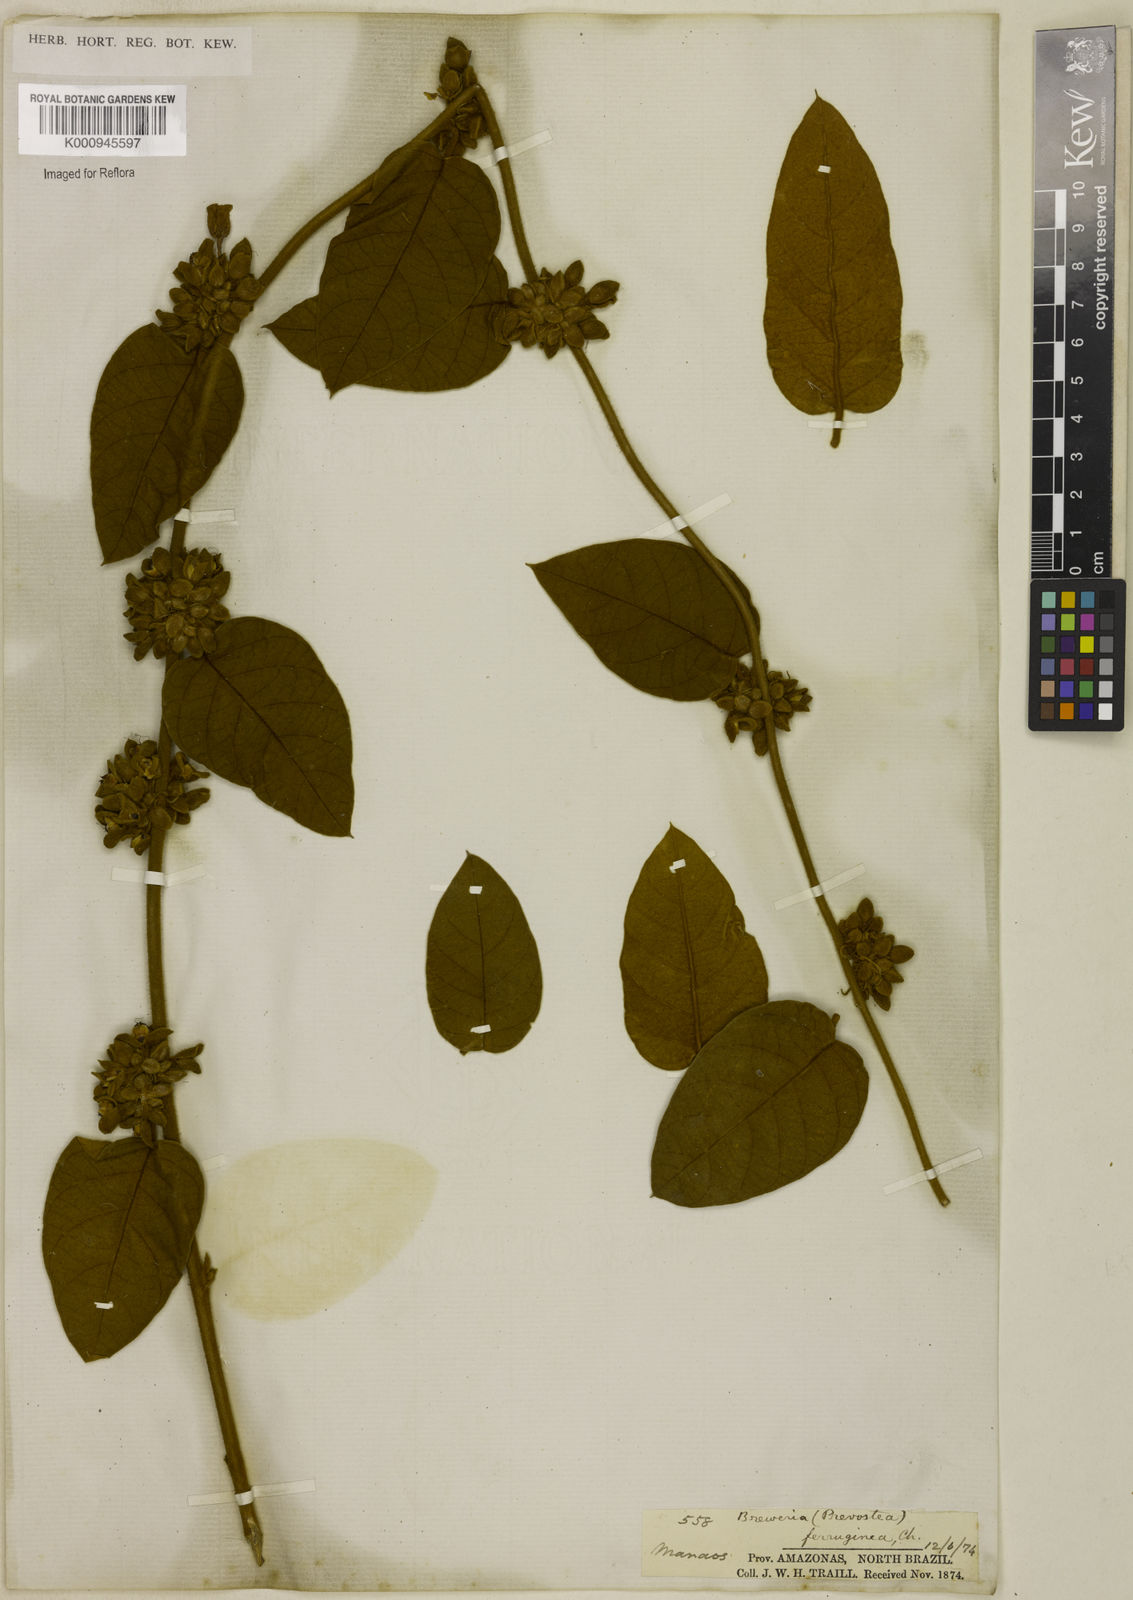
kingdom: Plantae
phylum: Tracheophyta
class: Magnoliopsida
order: Solanales
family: Convolvulaceae
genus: Bonamia
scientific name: Bonamia ferruginea
